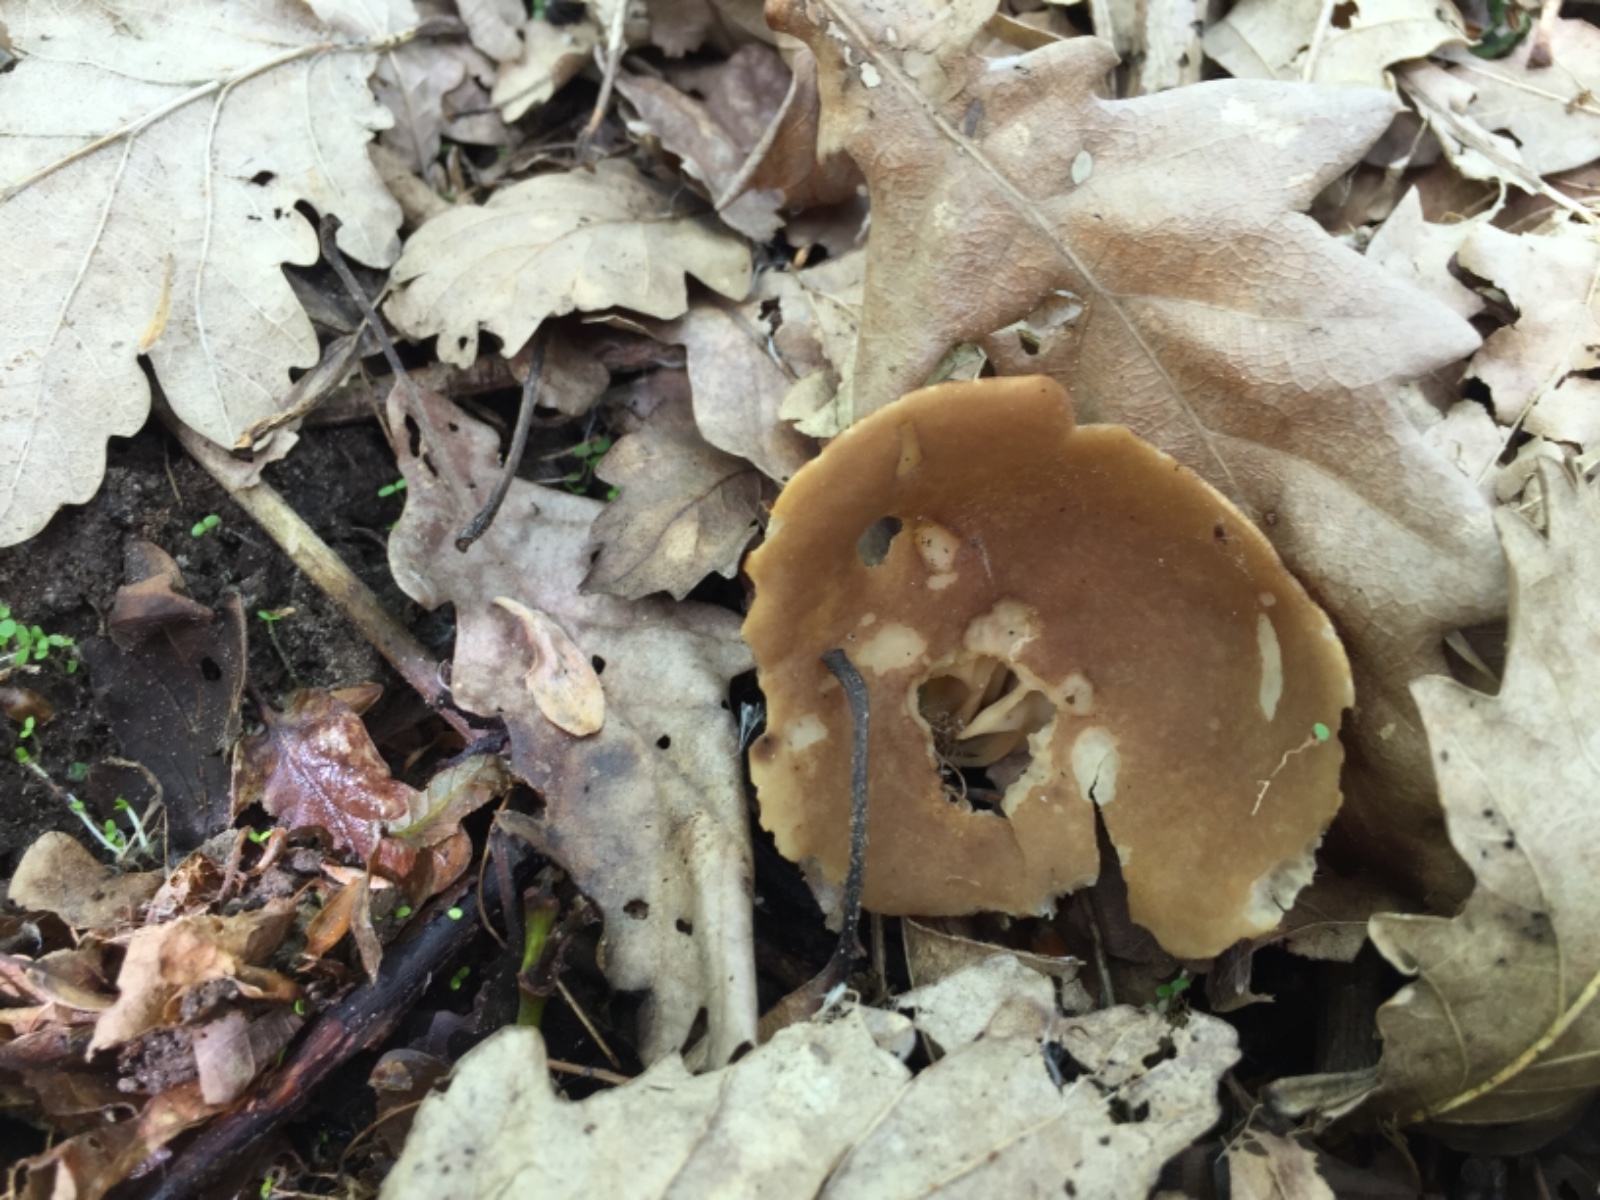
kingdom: Fungi
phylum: Ascomycota
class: Pezizomycetes
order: Pezizales
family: Helvellaceae
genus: Helvella
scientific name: Helvella acetabulum
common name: pokal-foldhat
